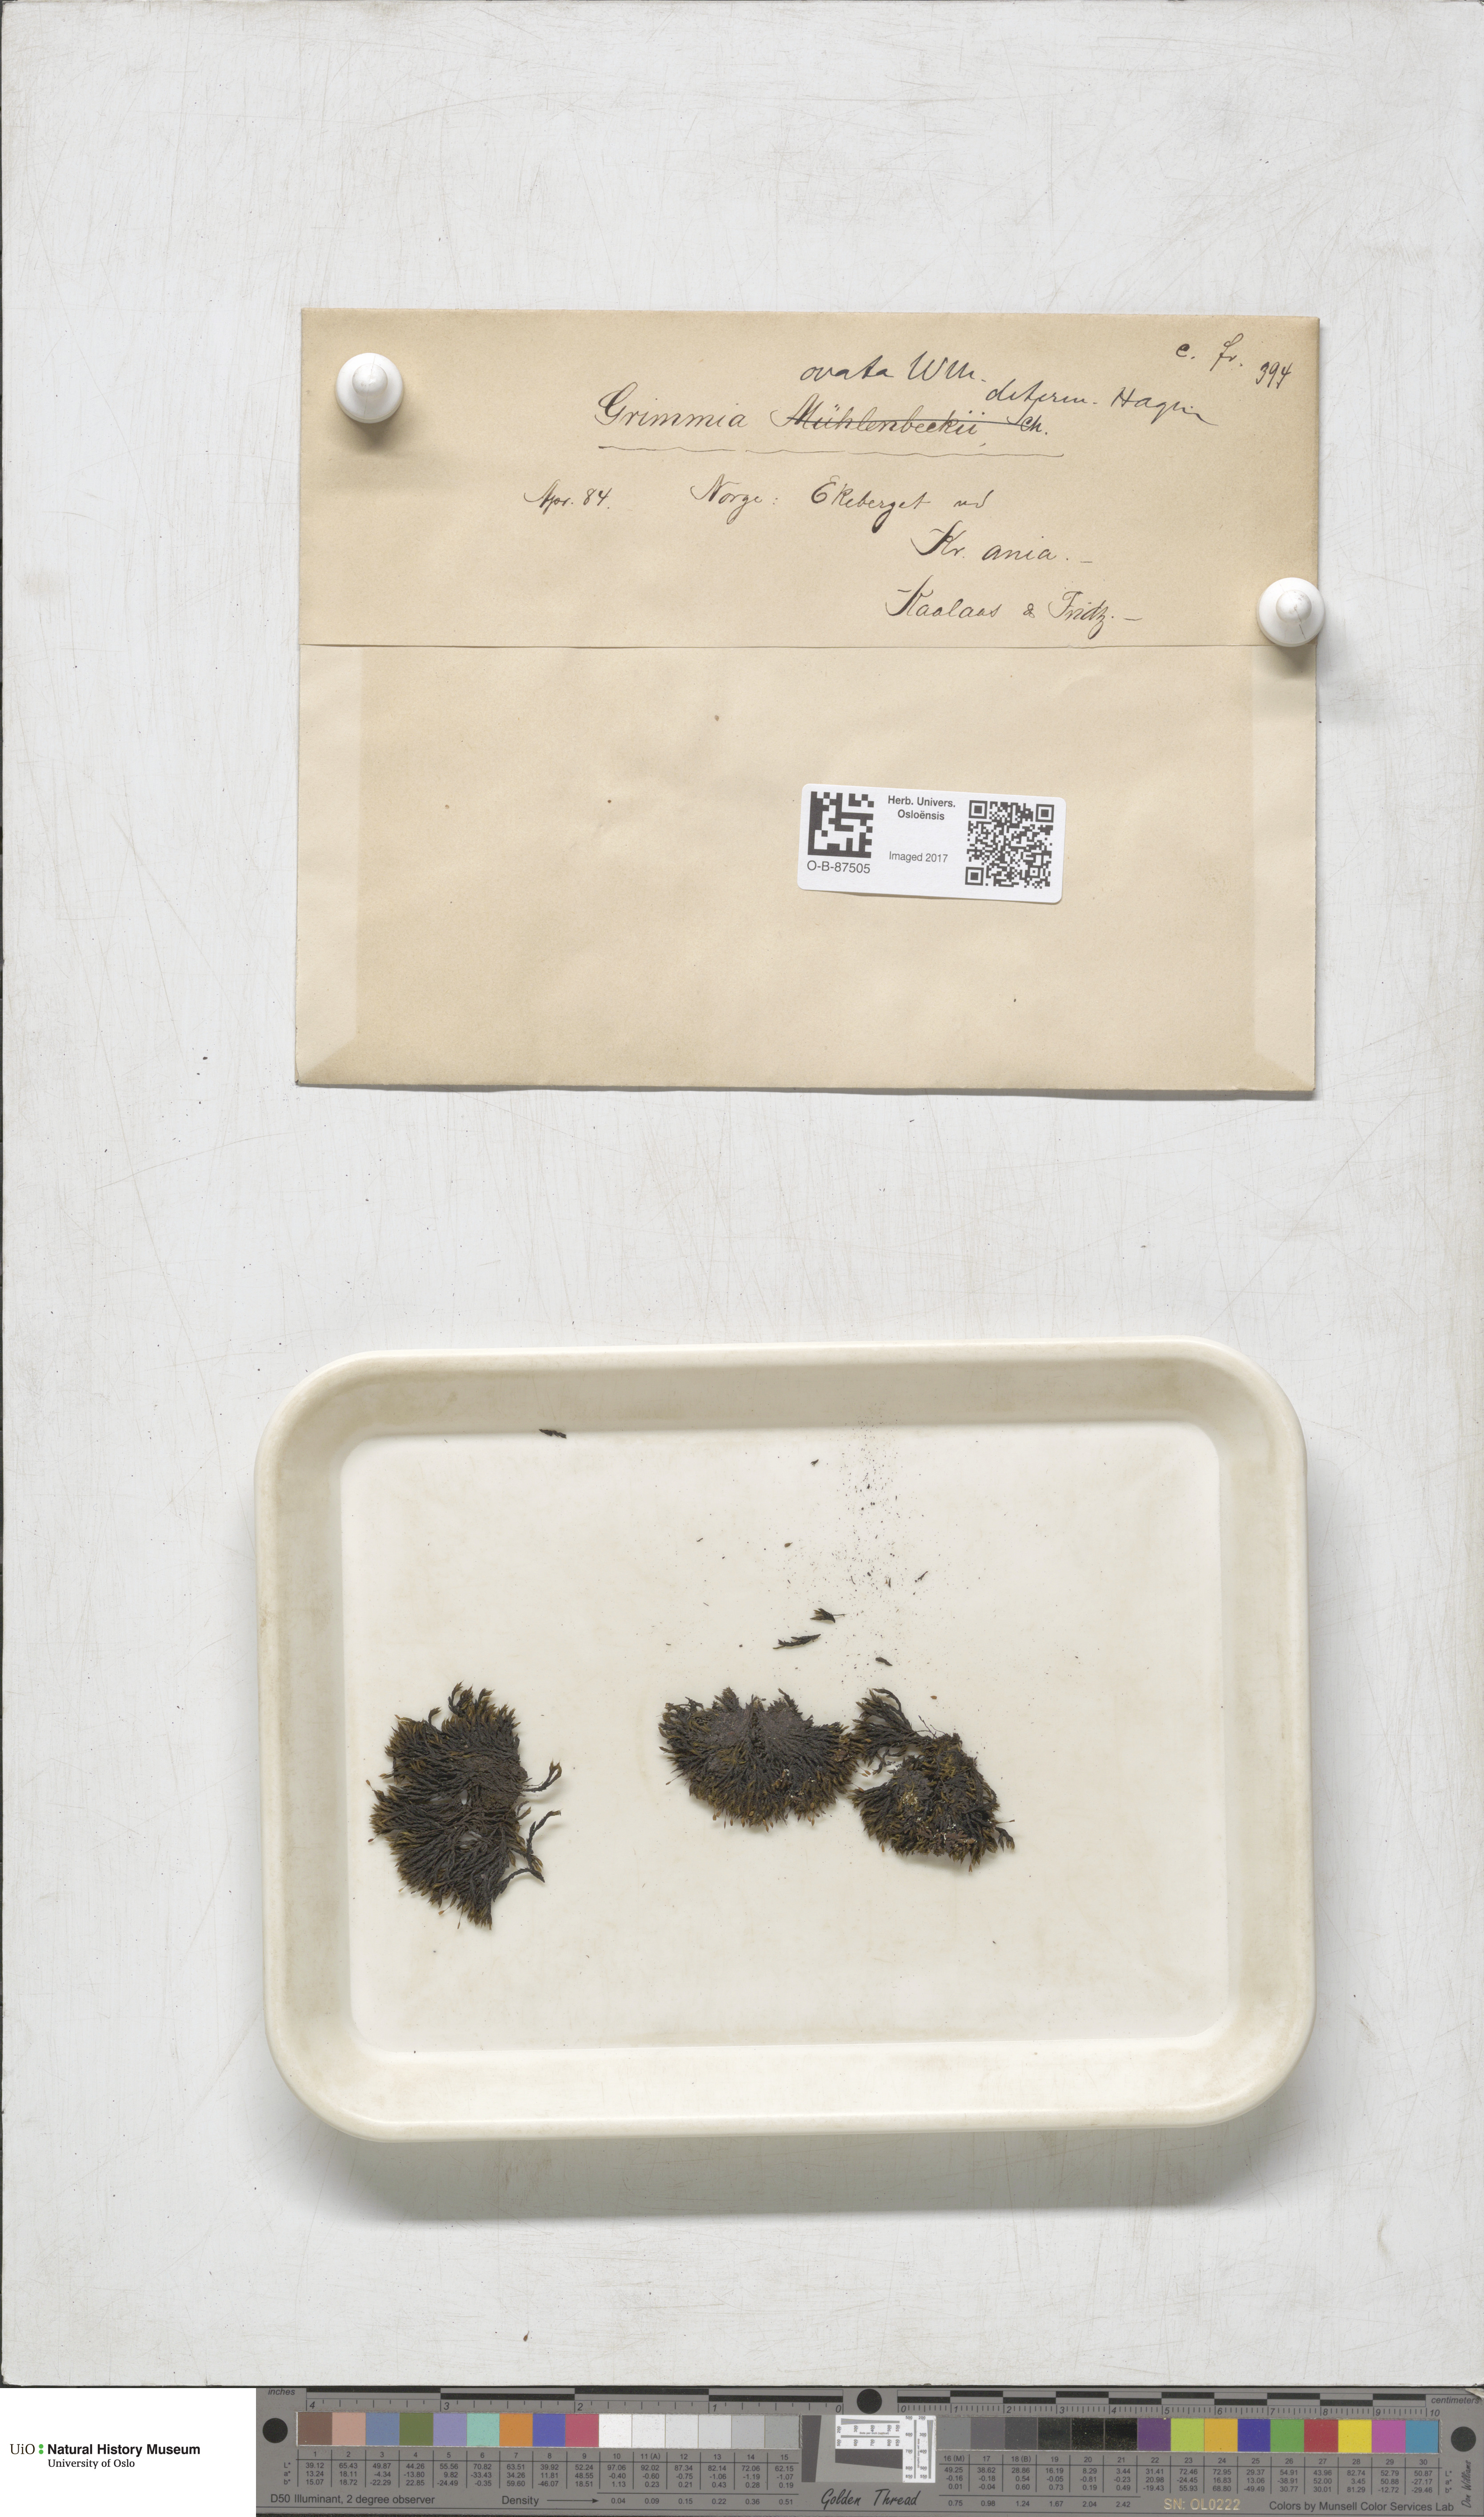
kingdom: Plantae
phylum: Bryophyta
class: Bryopsida
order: Grimmiales
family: Grimmiaceae
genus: Grimmia
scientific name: Grimmia ovalis
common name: Oval grimmia
